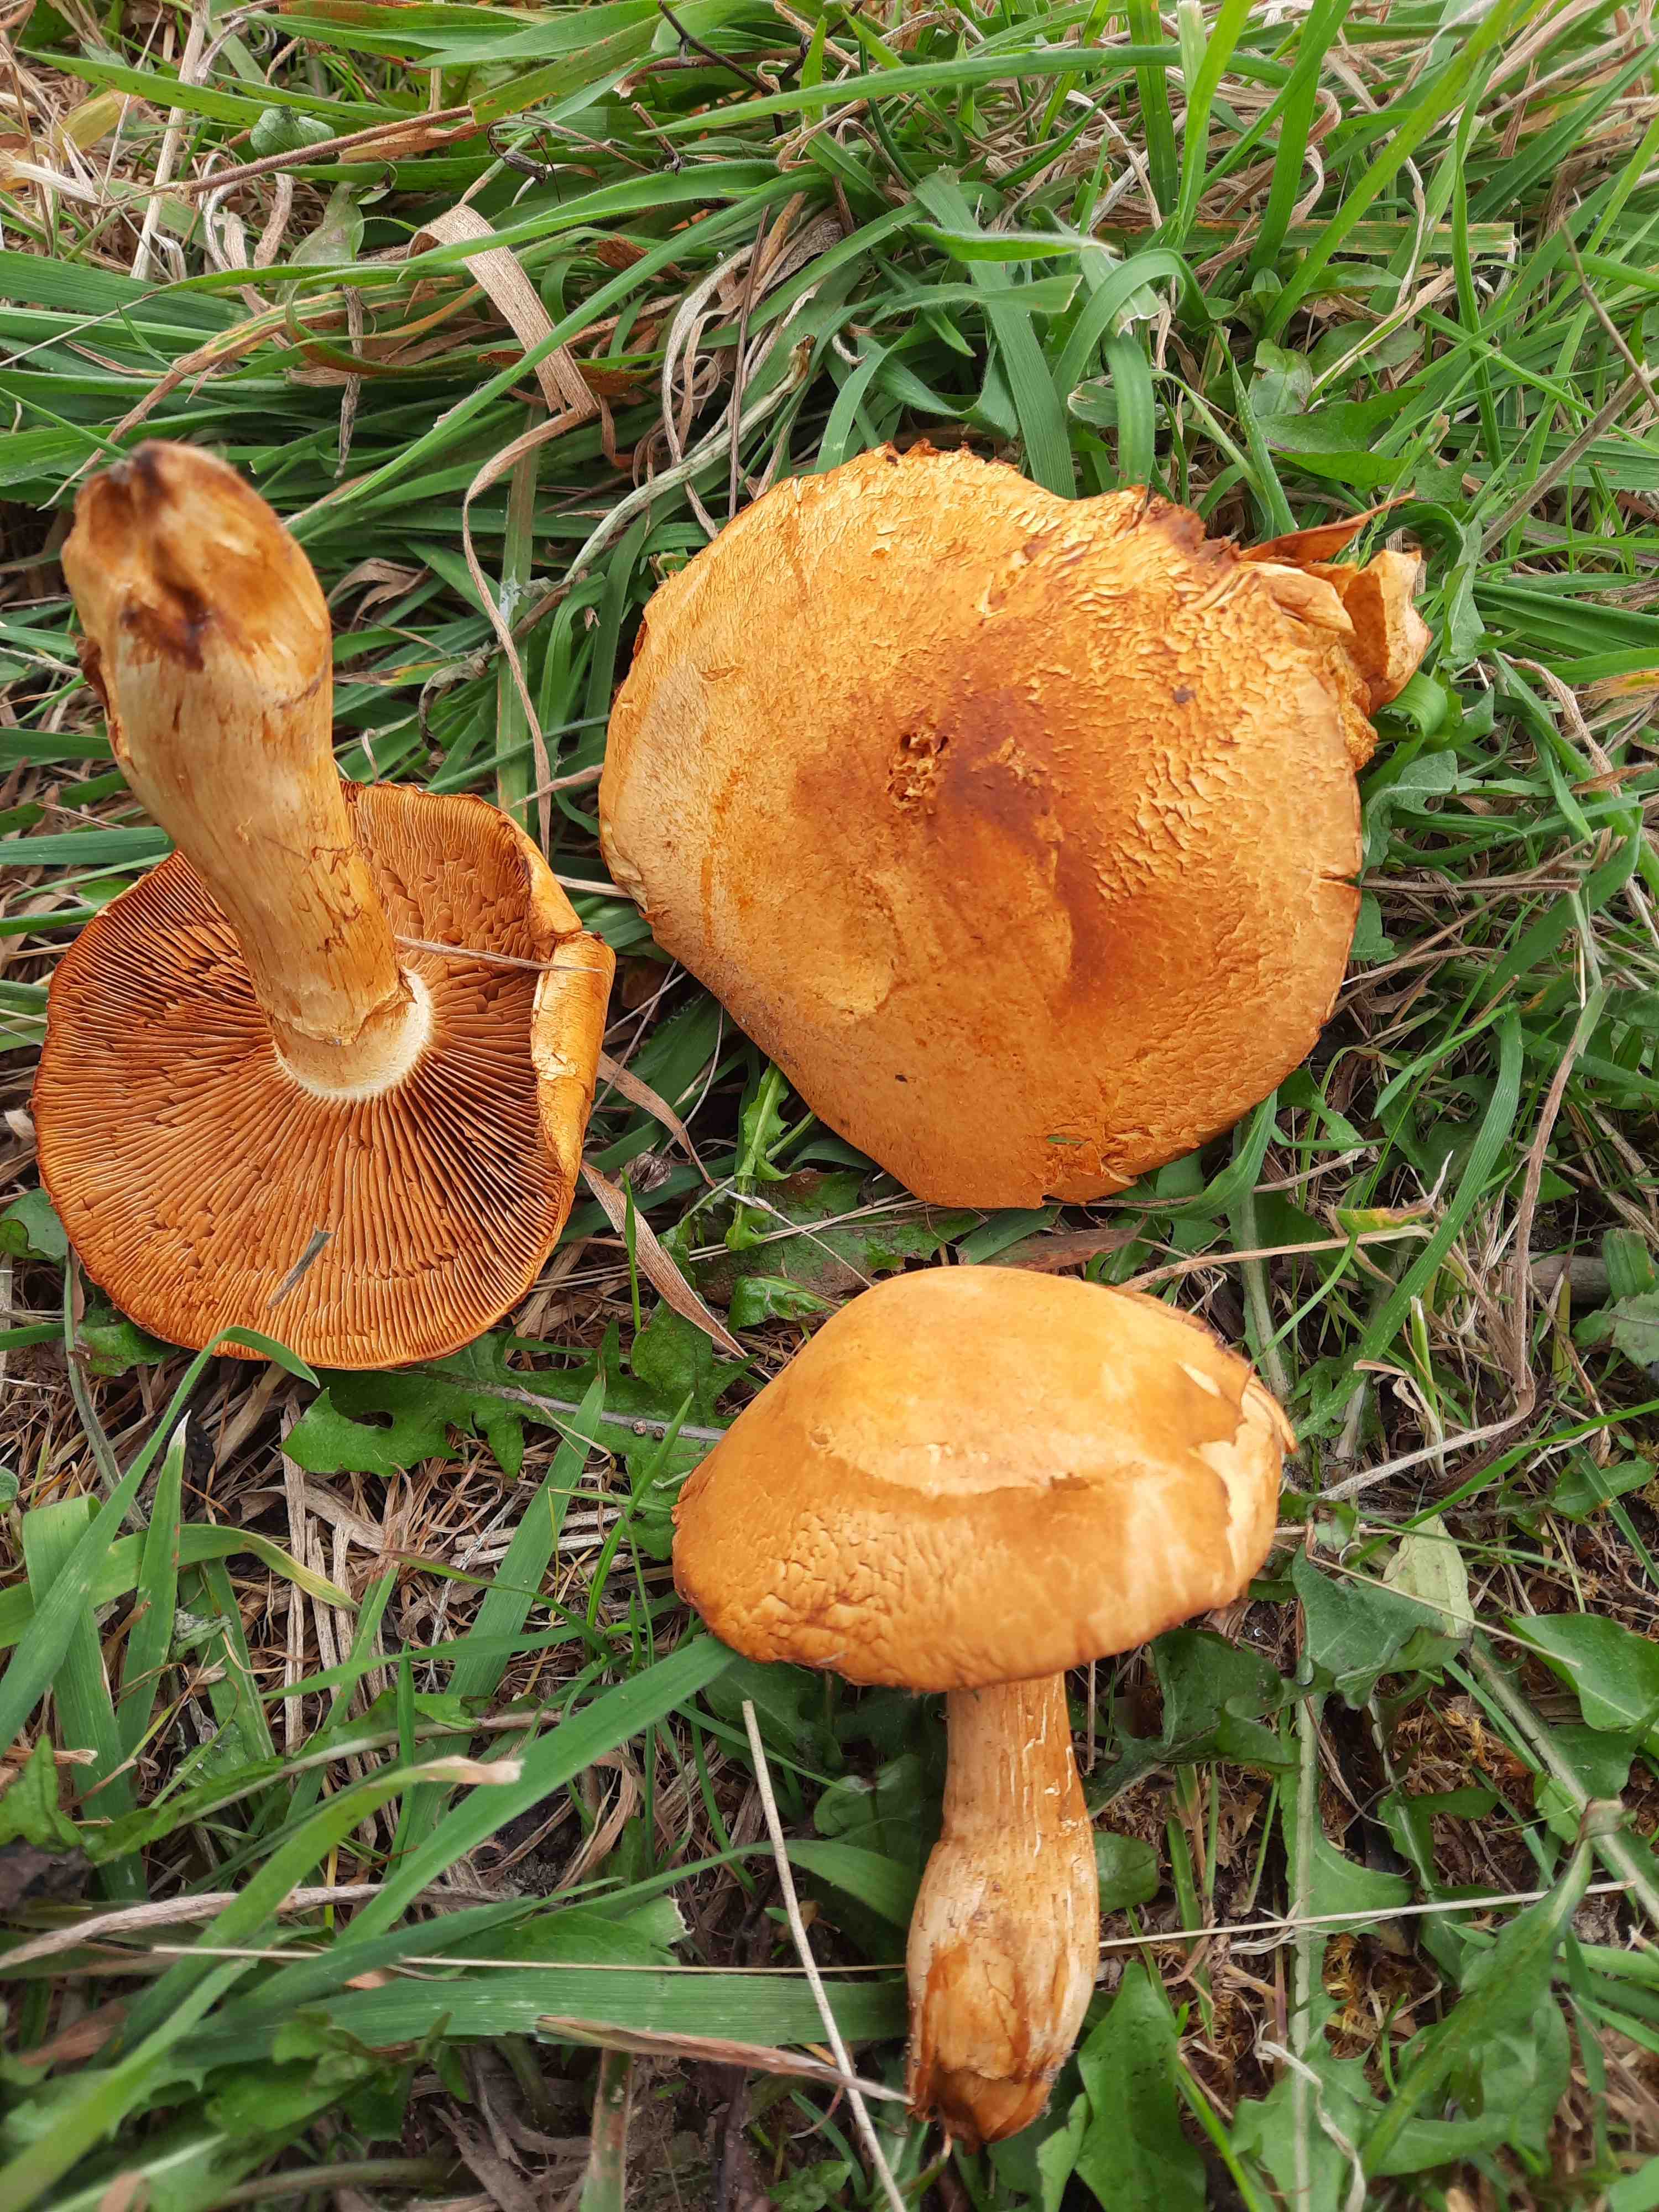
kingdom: Fungi
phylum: Basidiomycota
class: Agaricomycetes
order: Agaricales
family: Hymenogastraceae
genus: Gymnopilus
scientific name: Gymnopilus spectabilis
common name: fibret flammehat
